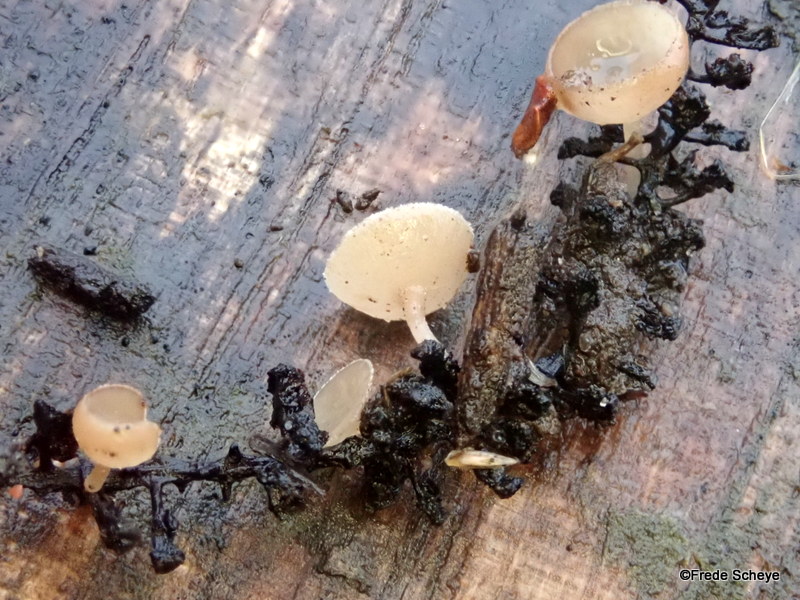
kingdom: Fungi
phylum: Ascomycota
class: Leotiomycetes
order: Helotiales
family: Sclerotiniaceae
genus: Ciboria
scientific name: Ciboria amentacea
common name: ellerakle-knoldskive
